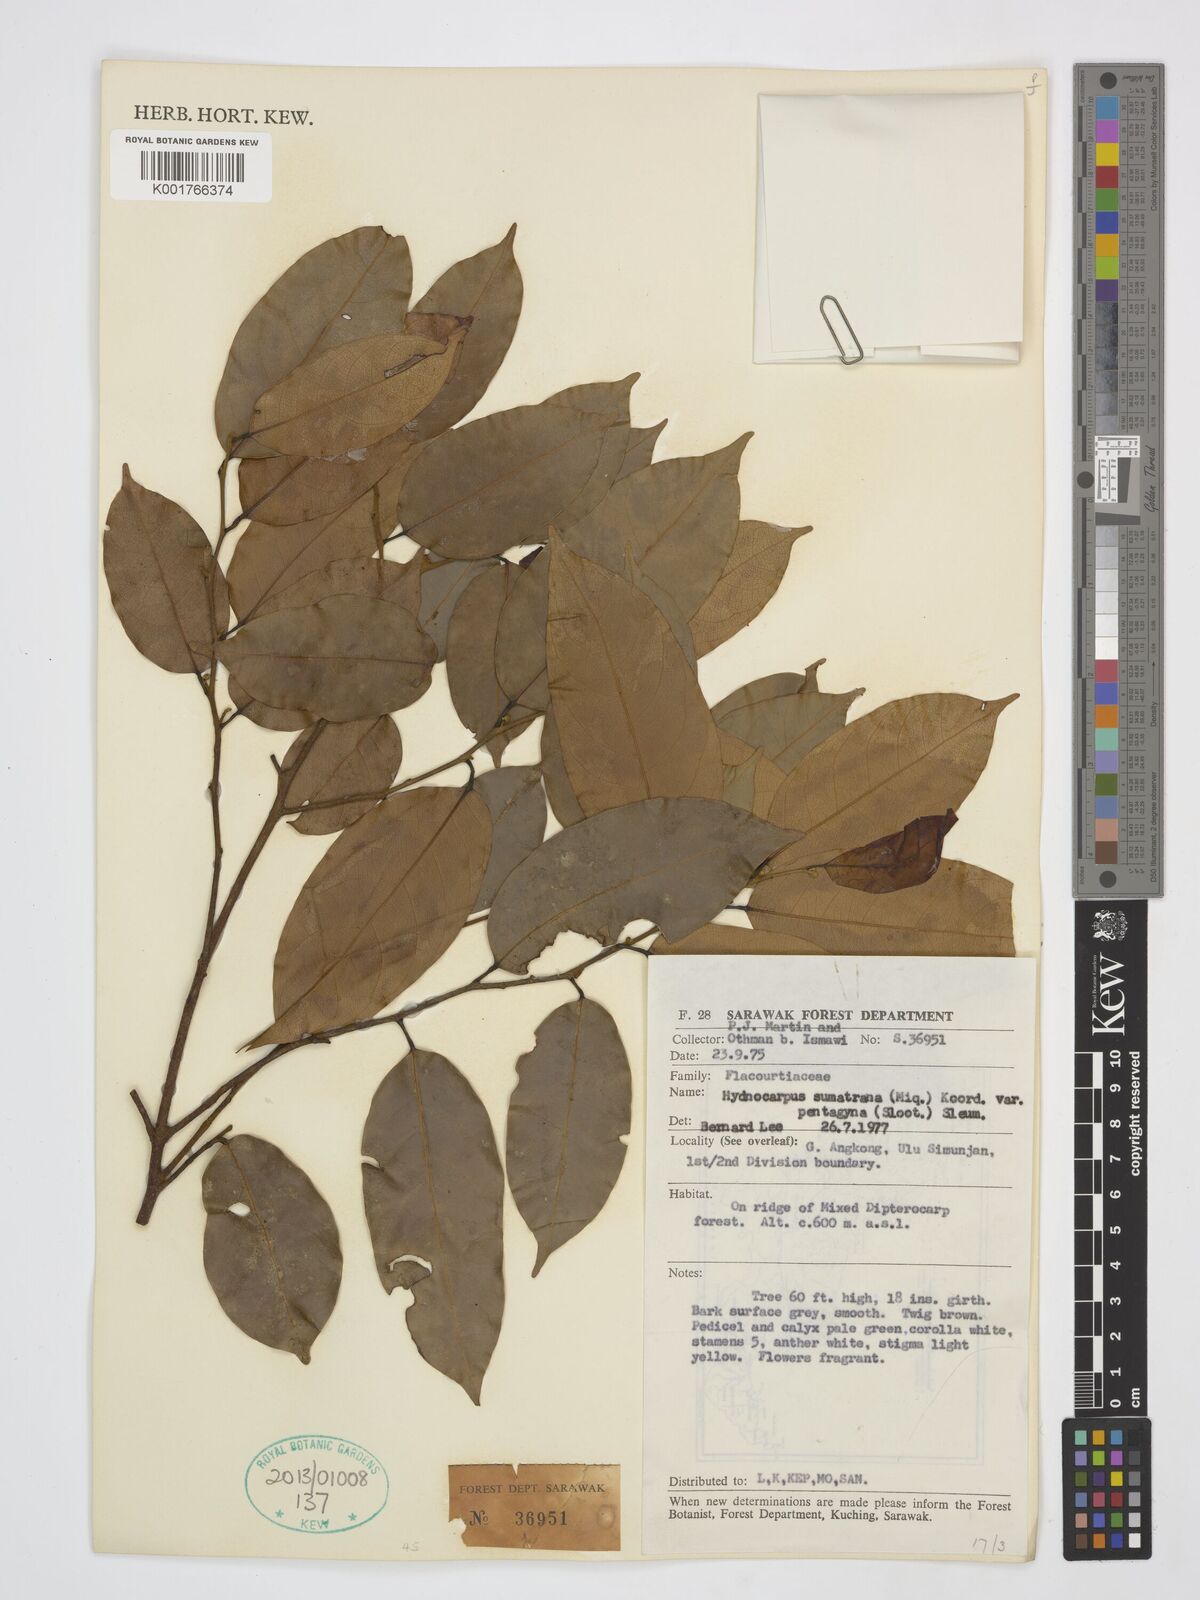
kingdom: Plantae
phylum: Tracheophyta
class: Magnoliopsida
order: Malpighiales
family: Achariaceae
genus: Hydnocarpus
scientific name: Hydnocarpus sumatranus
